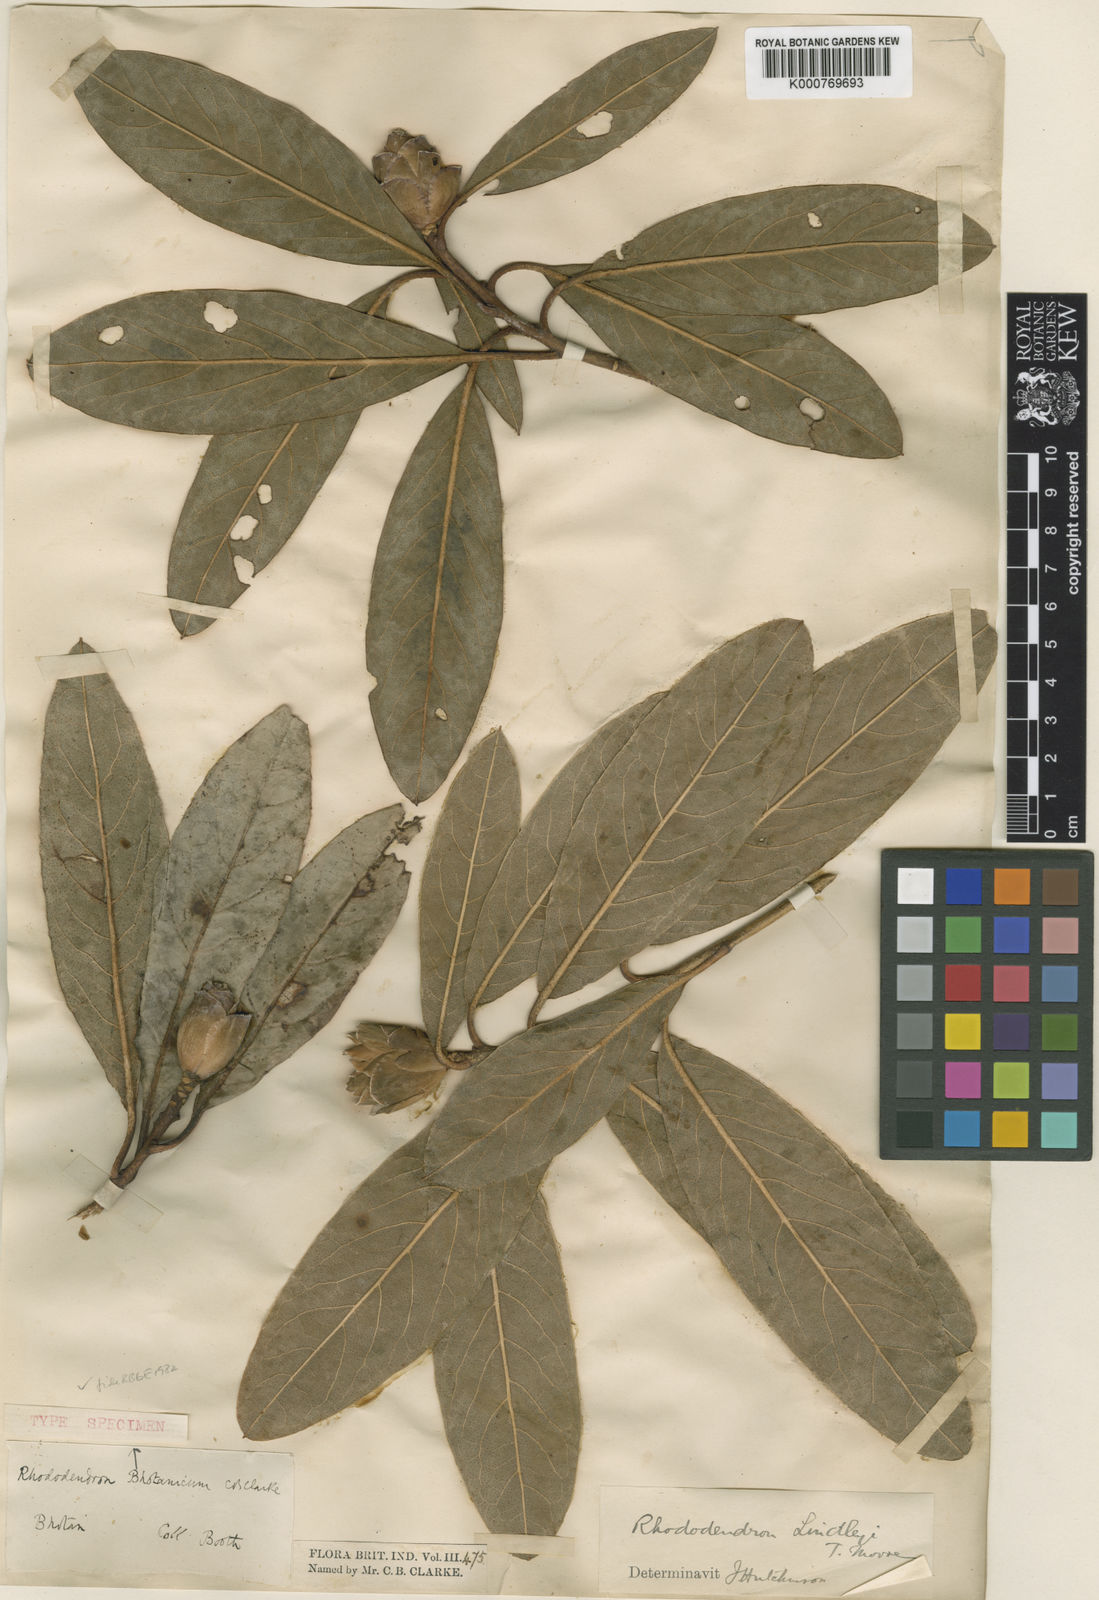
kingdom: Plantae
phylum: Tracheophyta
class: Magnoliopsida
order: Ericales
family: Ericaceae
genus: Rhododendron
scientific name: Rhododendron lindleyi
